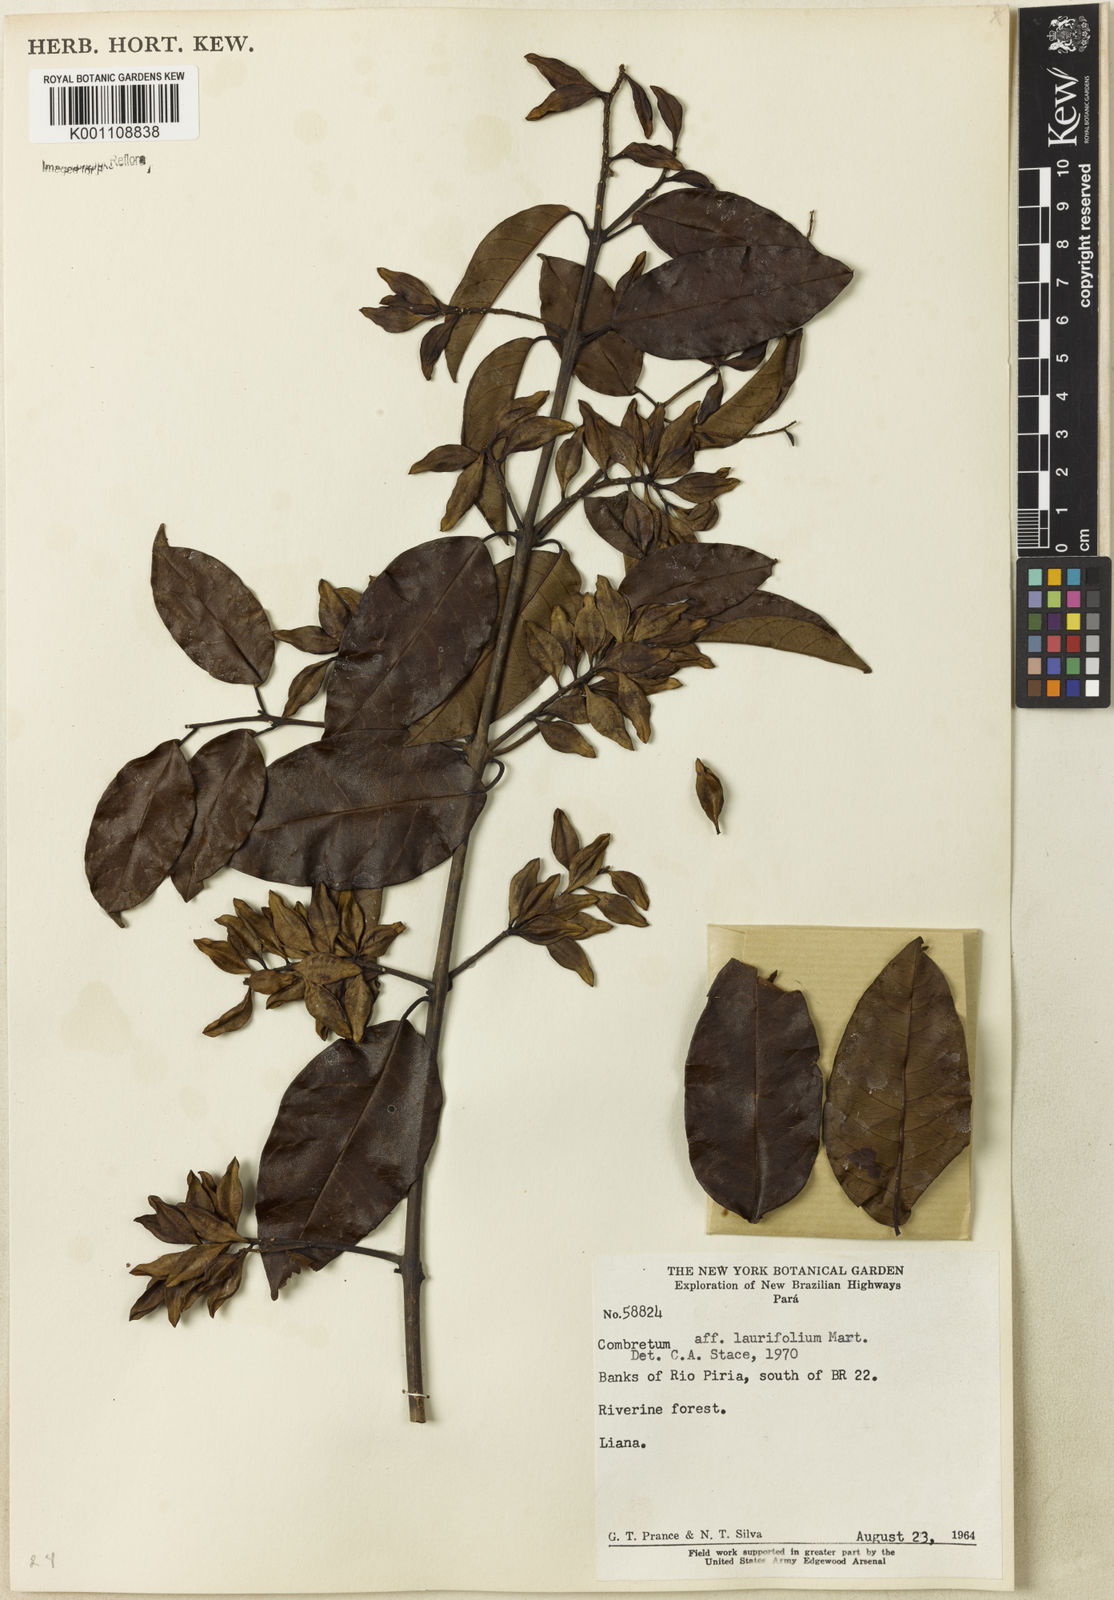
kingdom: Plantae
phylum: Tracheophyta
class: Magnoliopsida
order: Myrtales
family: Combretaceae
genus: Combretum
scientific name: Combretum
